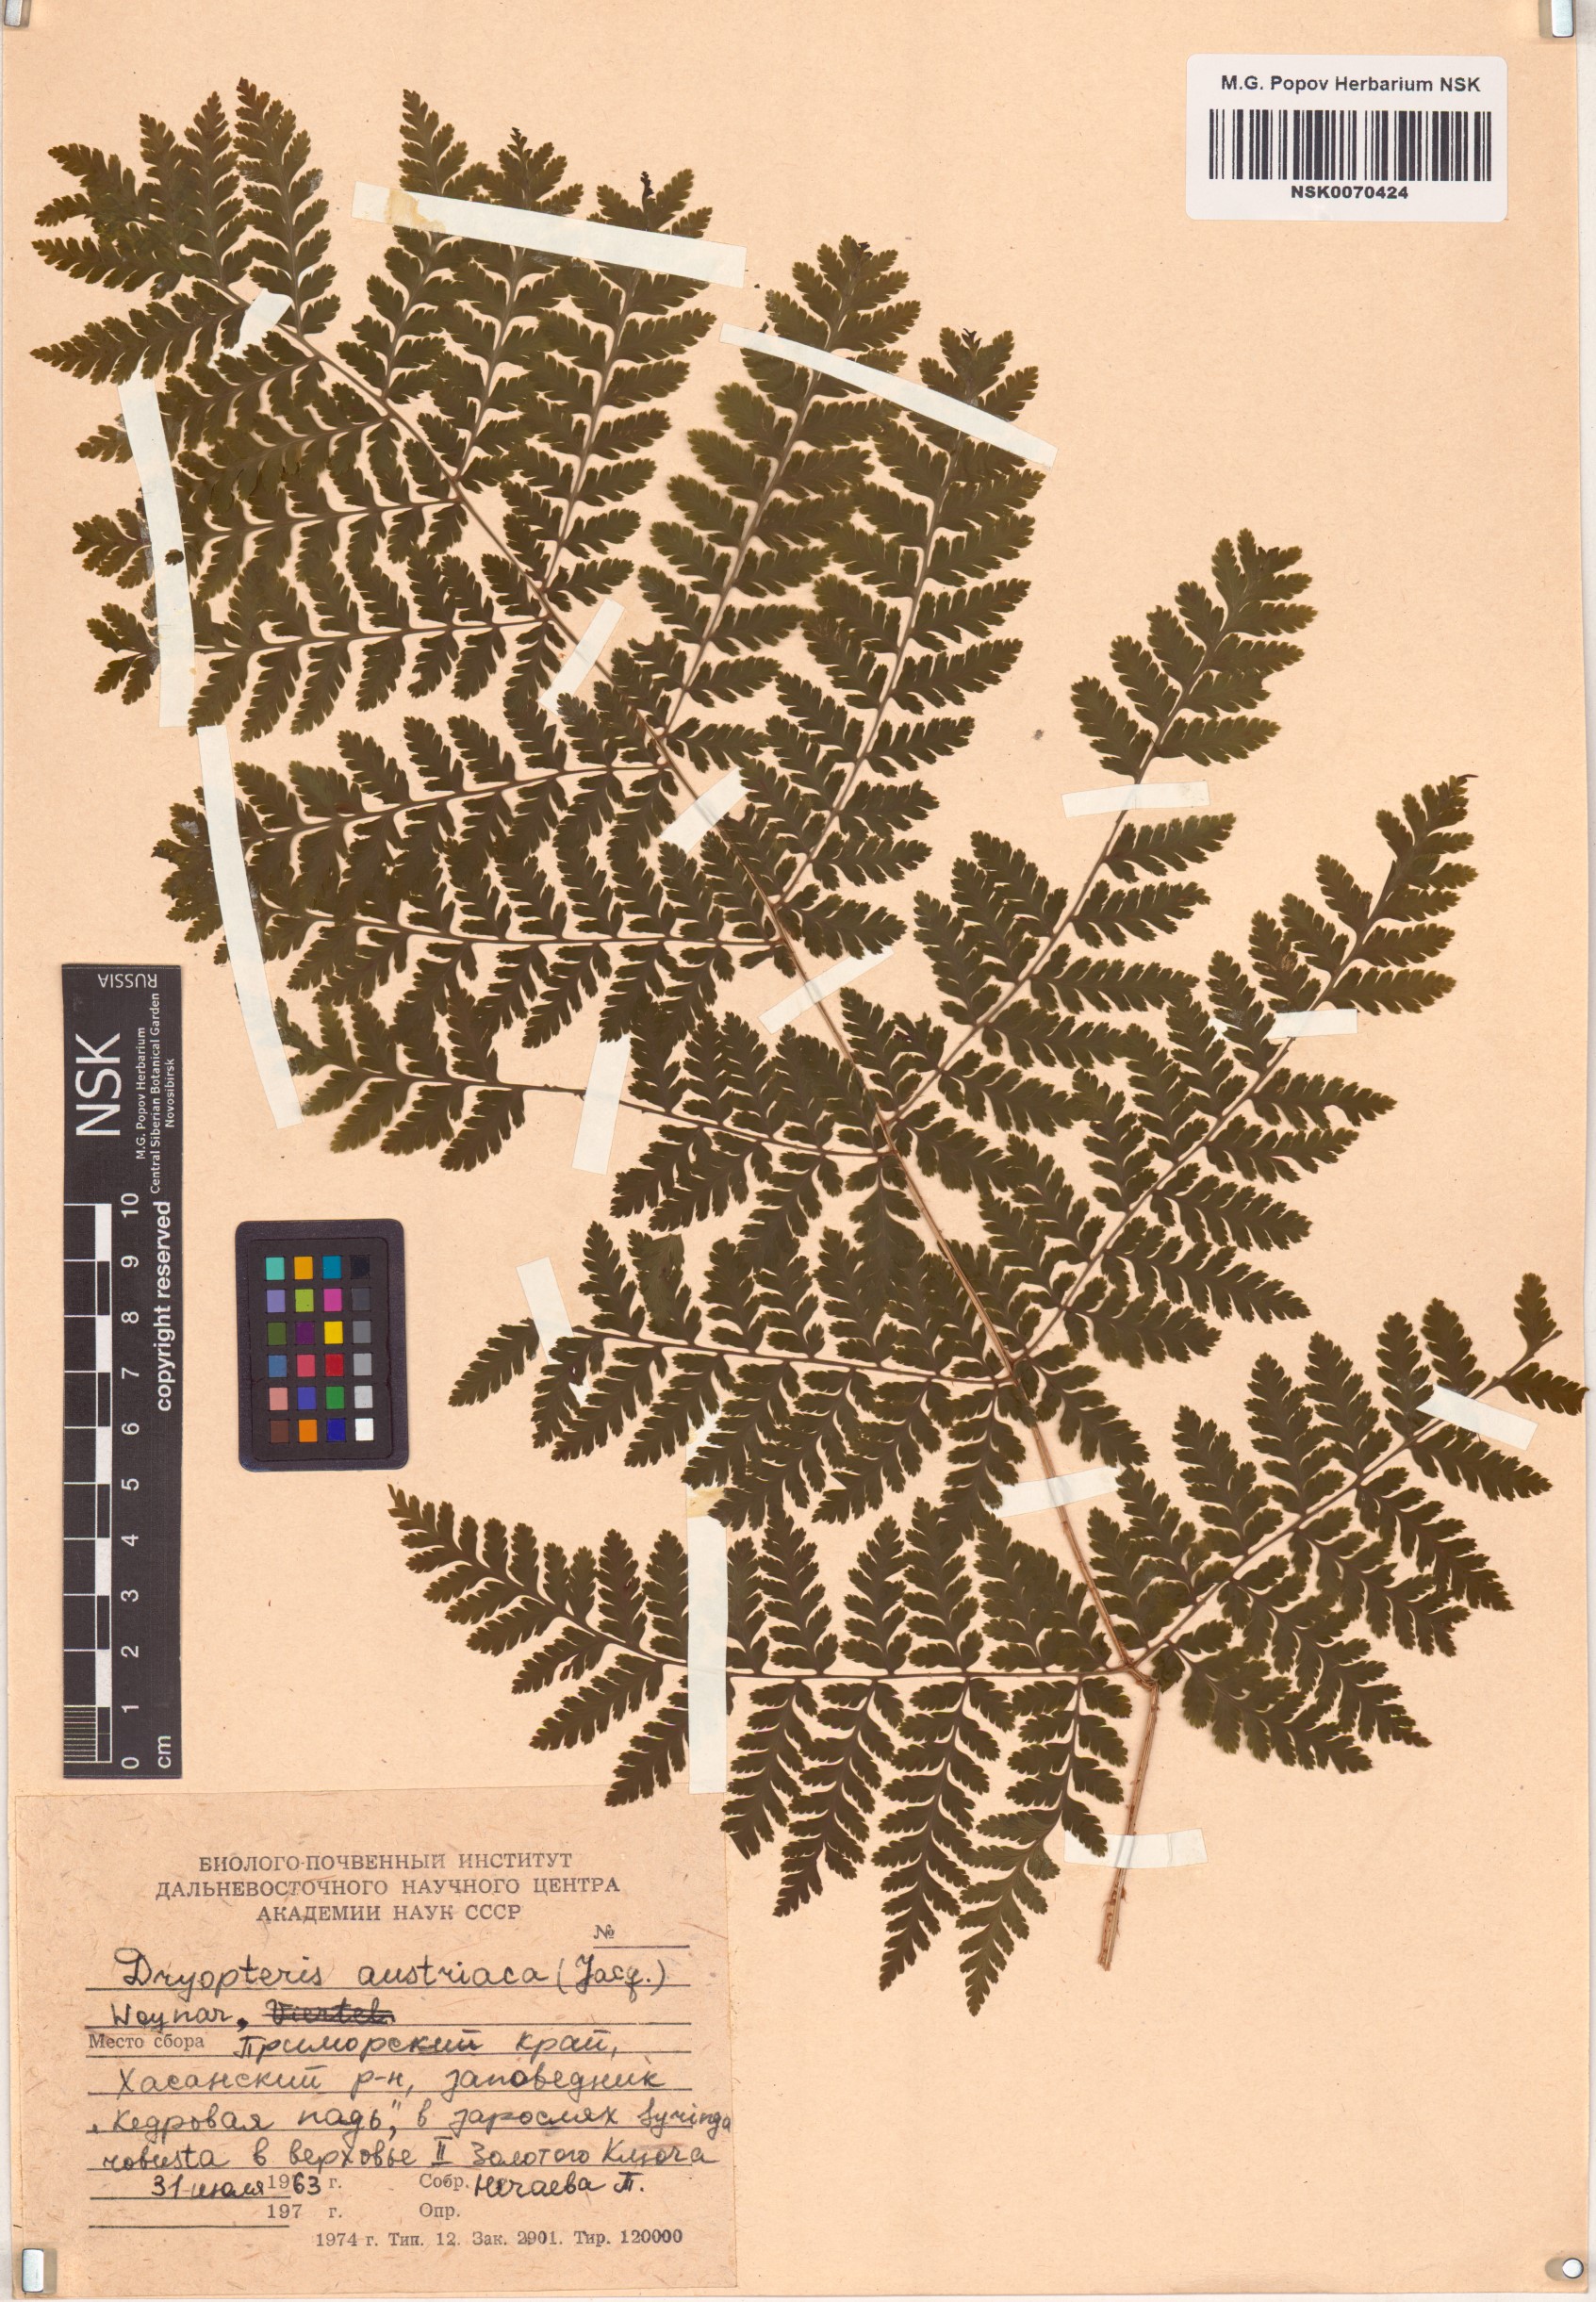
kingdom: Plantae
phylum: Tracheophyta
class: Polypodiopsida
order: Polypodiales
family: Dryopteridaceae
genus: Dryopteris
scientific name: Dryopteris dilatata
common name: Broad buckler-fern
